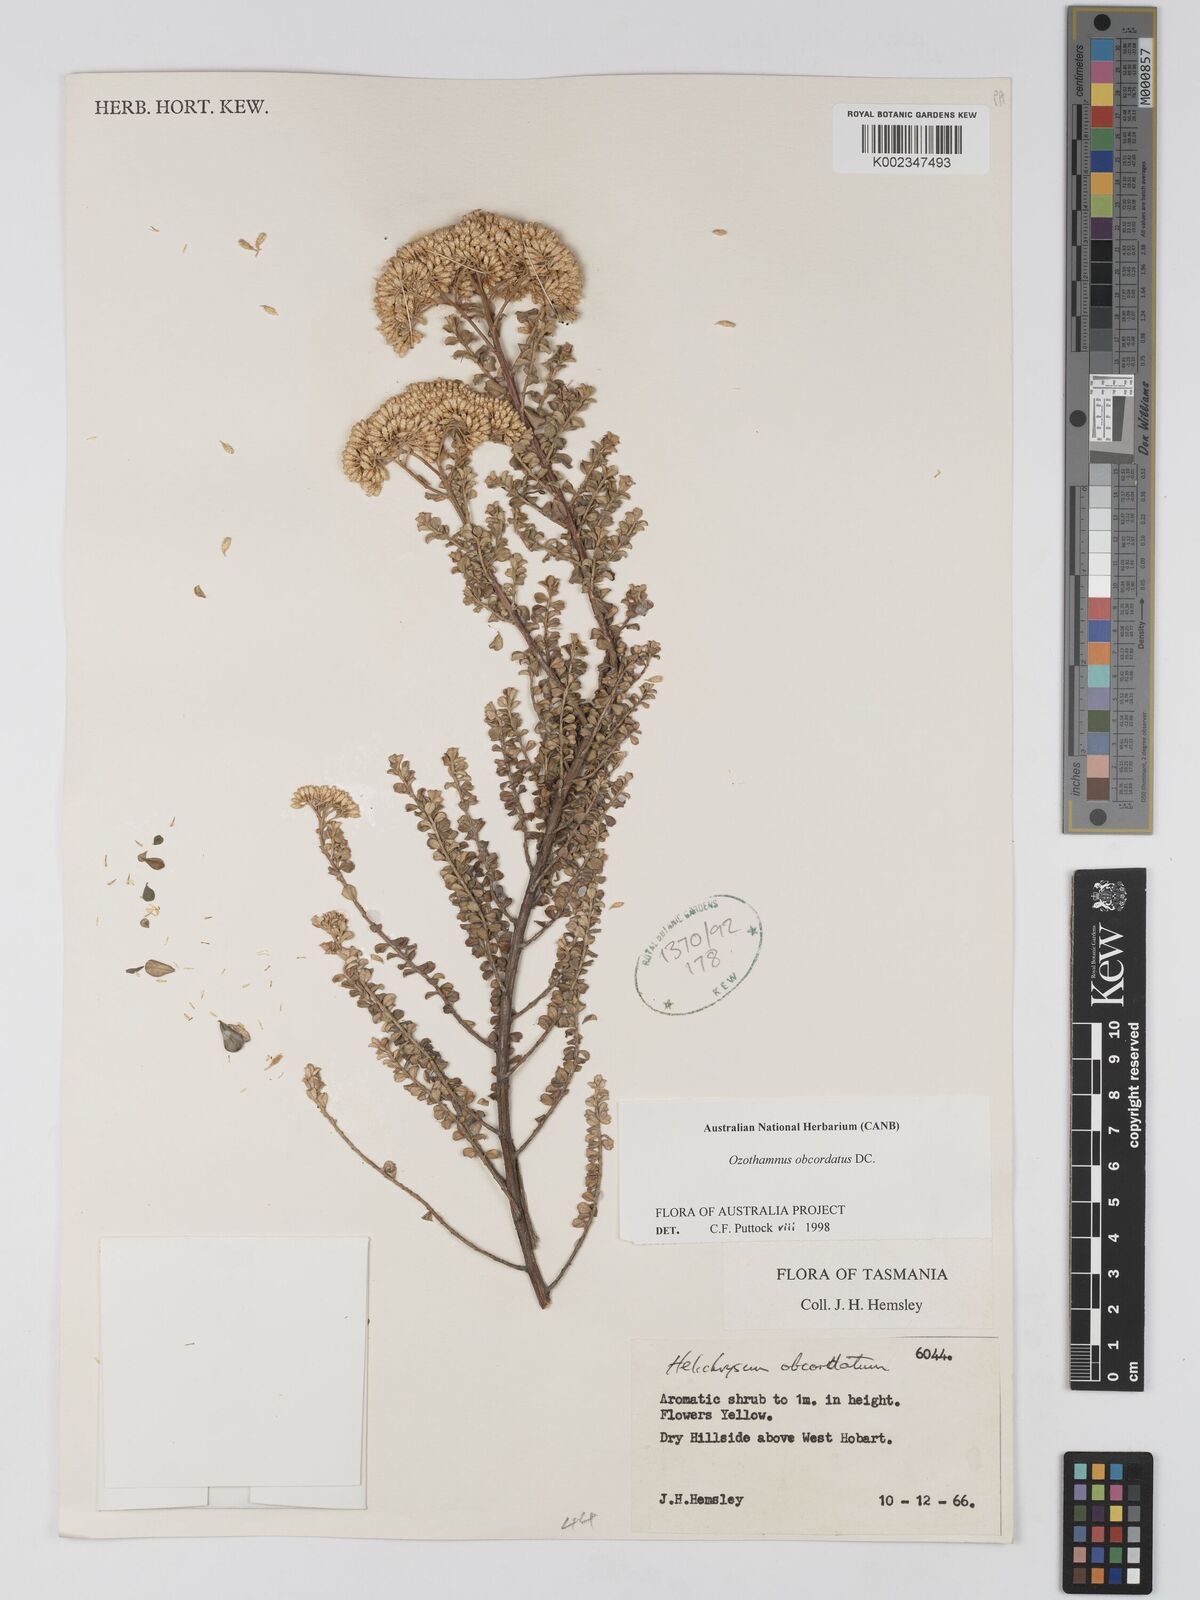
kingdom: Plantae
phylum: Tracheophyta
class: Magnoliopsida
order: Asterales
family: Asteraceae
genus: Ozothamnus
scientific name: Ozothamnus obcordatus
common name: Grey everlasting
